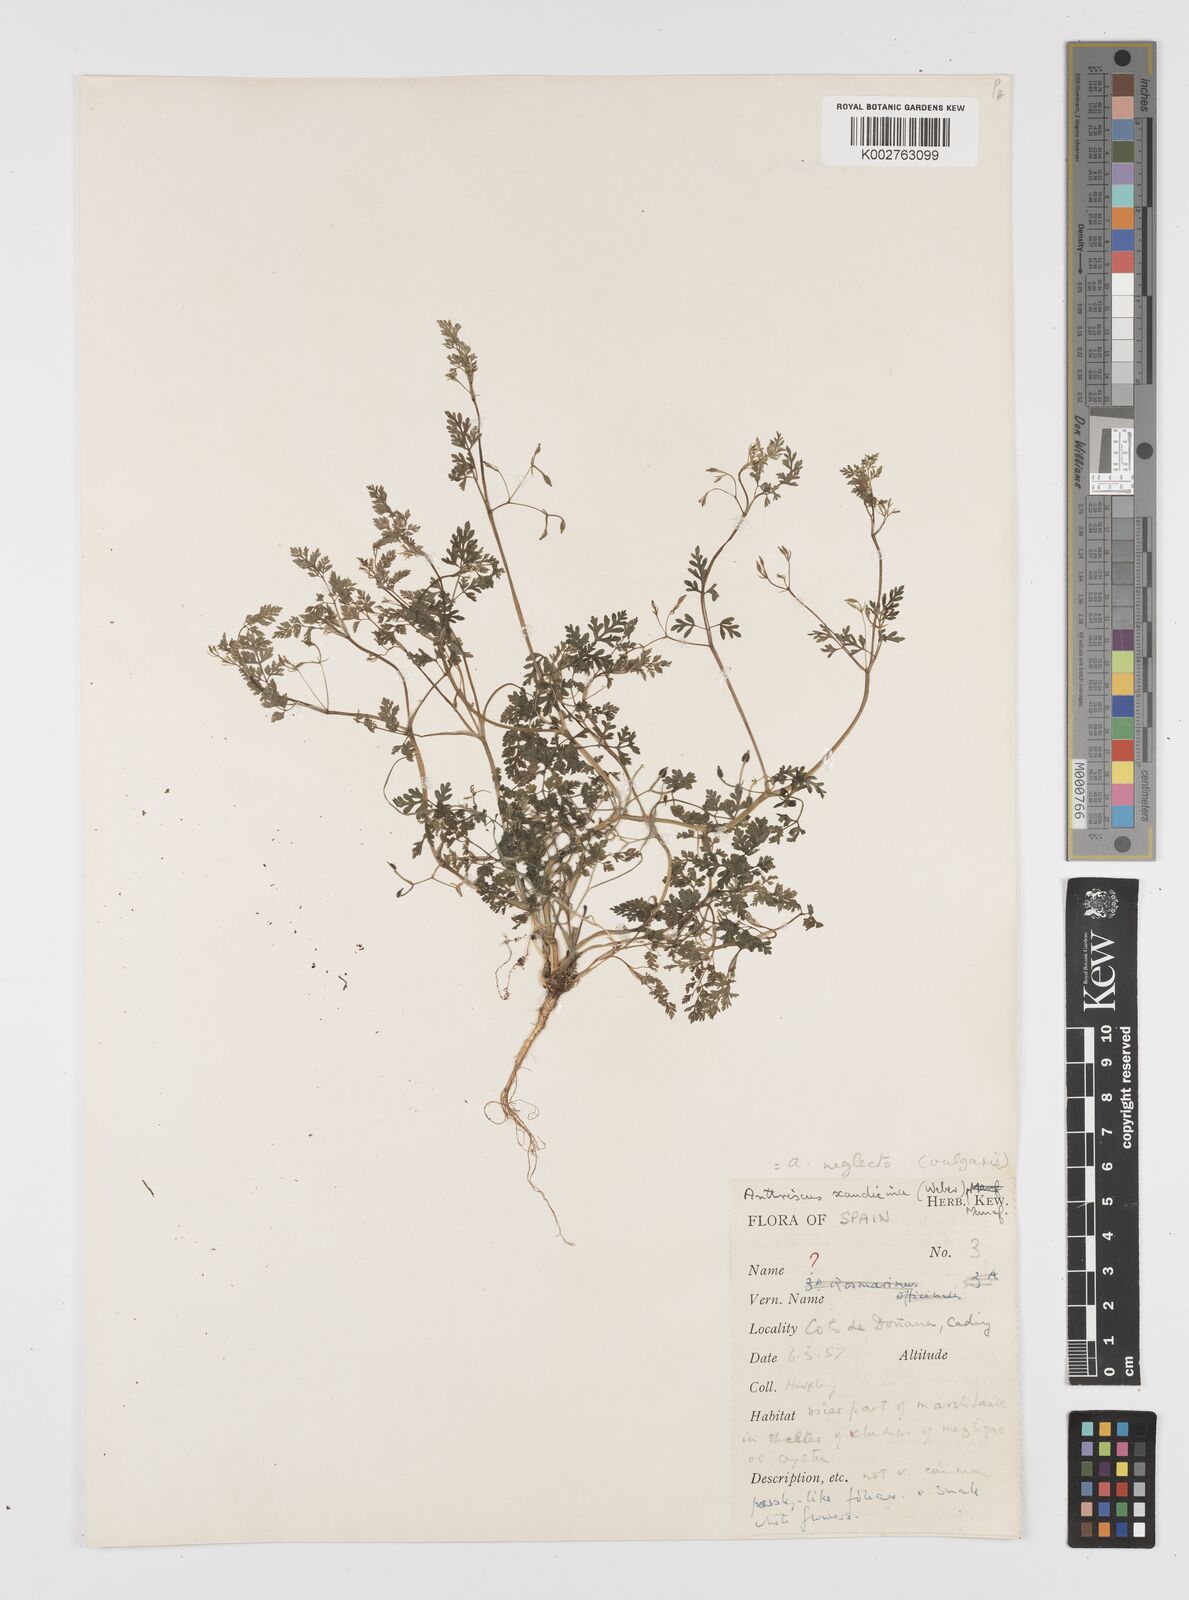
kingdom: Plantae
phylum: Tracheophyta
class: Magnoliopsida
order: Apiales
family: Apiaceae
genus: Anthriscus
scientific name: Anthriscus caucalis
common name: Bur chervil
